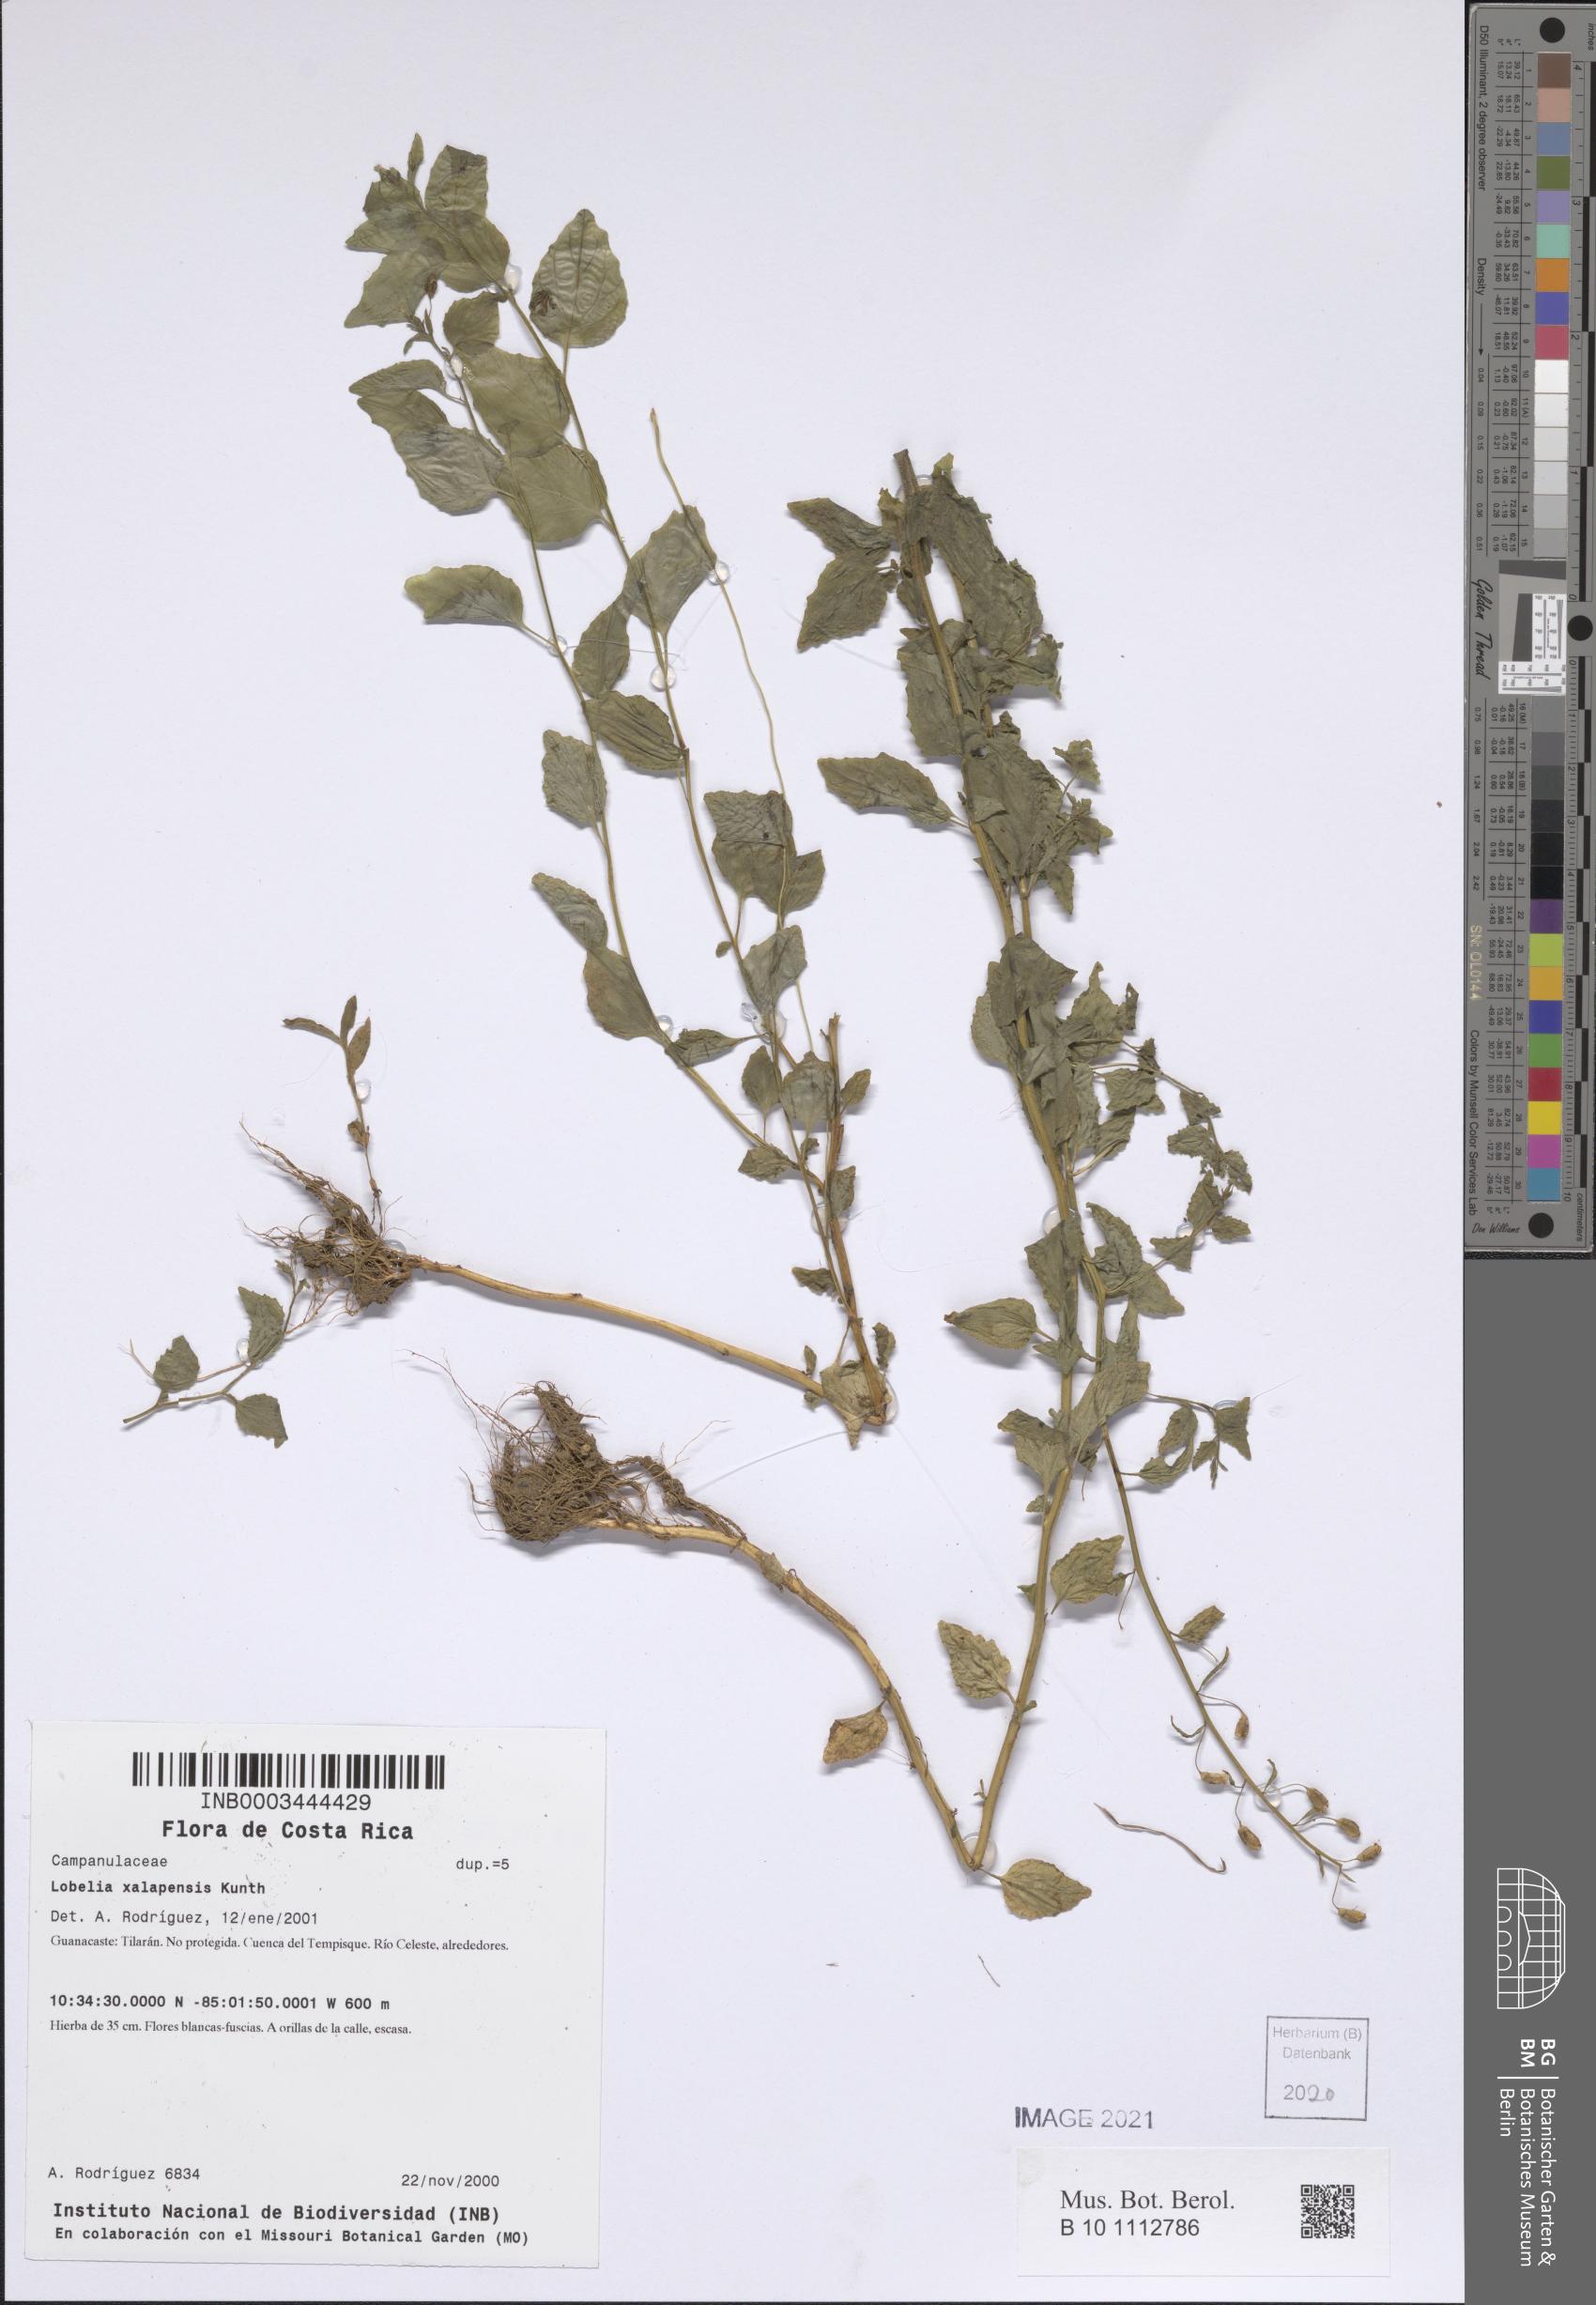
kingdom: Plantae
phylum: Tracheophyta
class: Magnoliopsida
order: Asterales
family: Campanulaceae
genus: Lobelia
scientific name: Lobelia xalapensis
